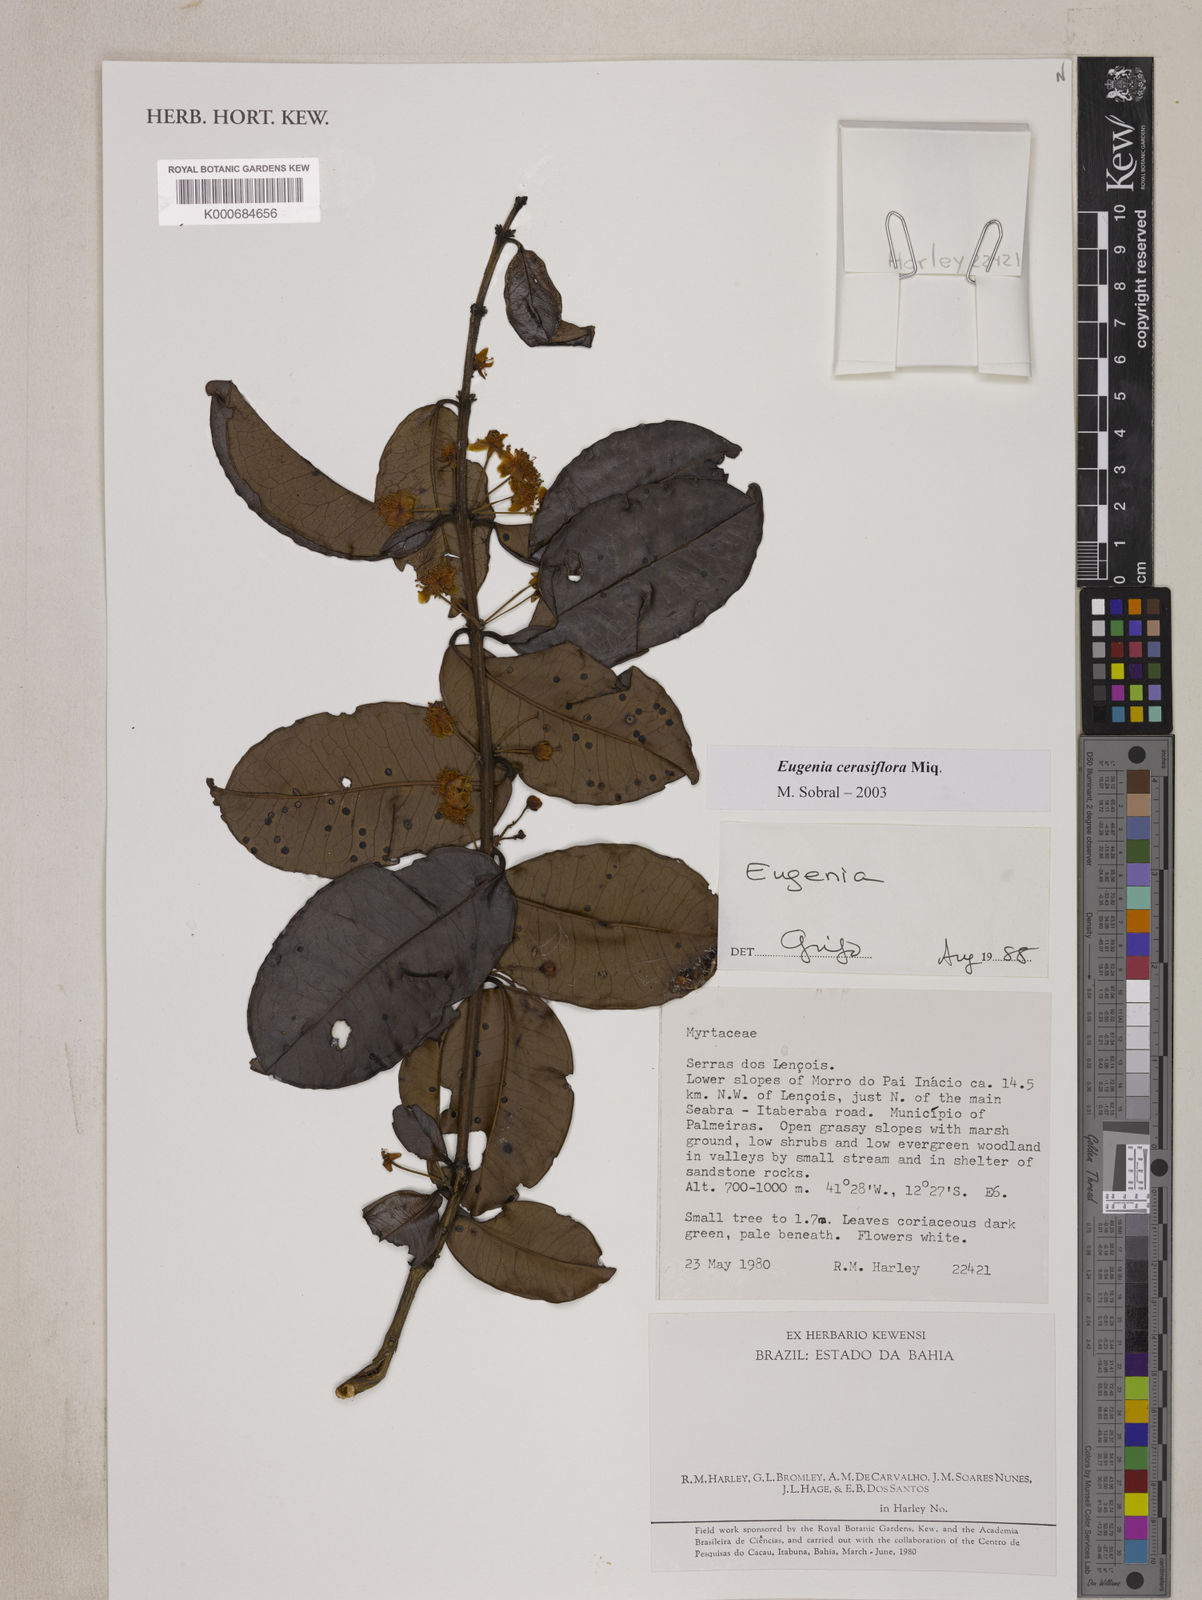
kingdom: Plantae
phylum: Tracheophyta
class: Magnoliopsida
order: Myrtales
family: Myrtaceae
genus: Eugenia
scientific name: Eugenia cerasiflora
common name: Cherry-of-the-rio-grande
